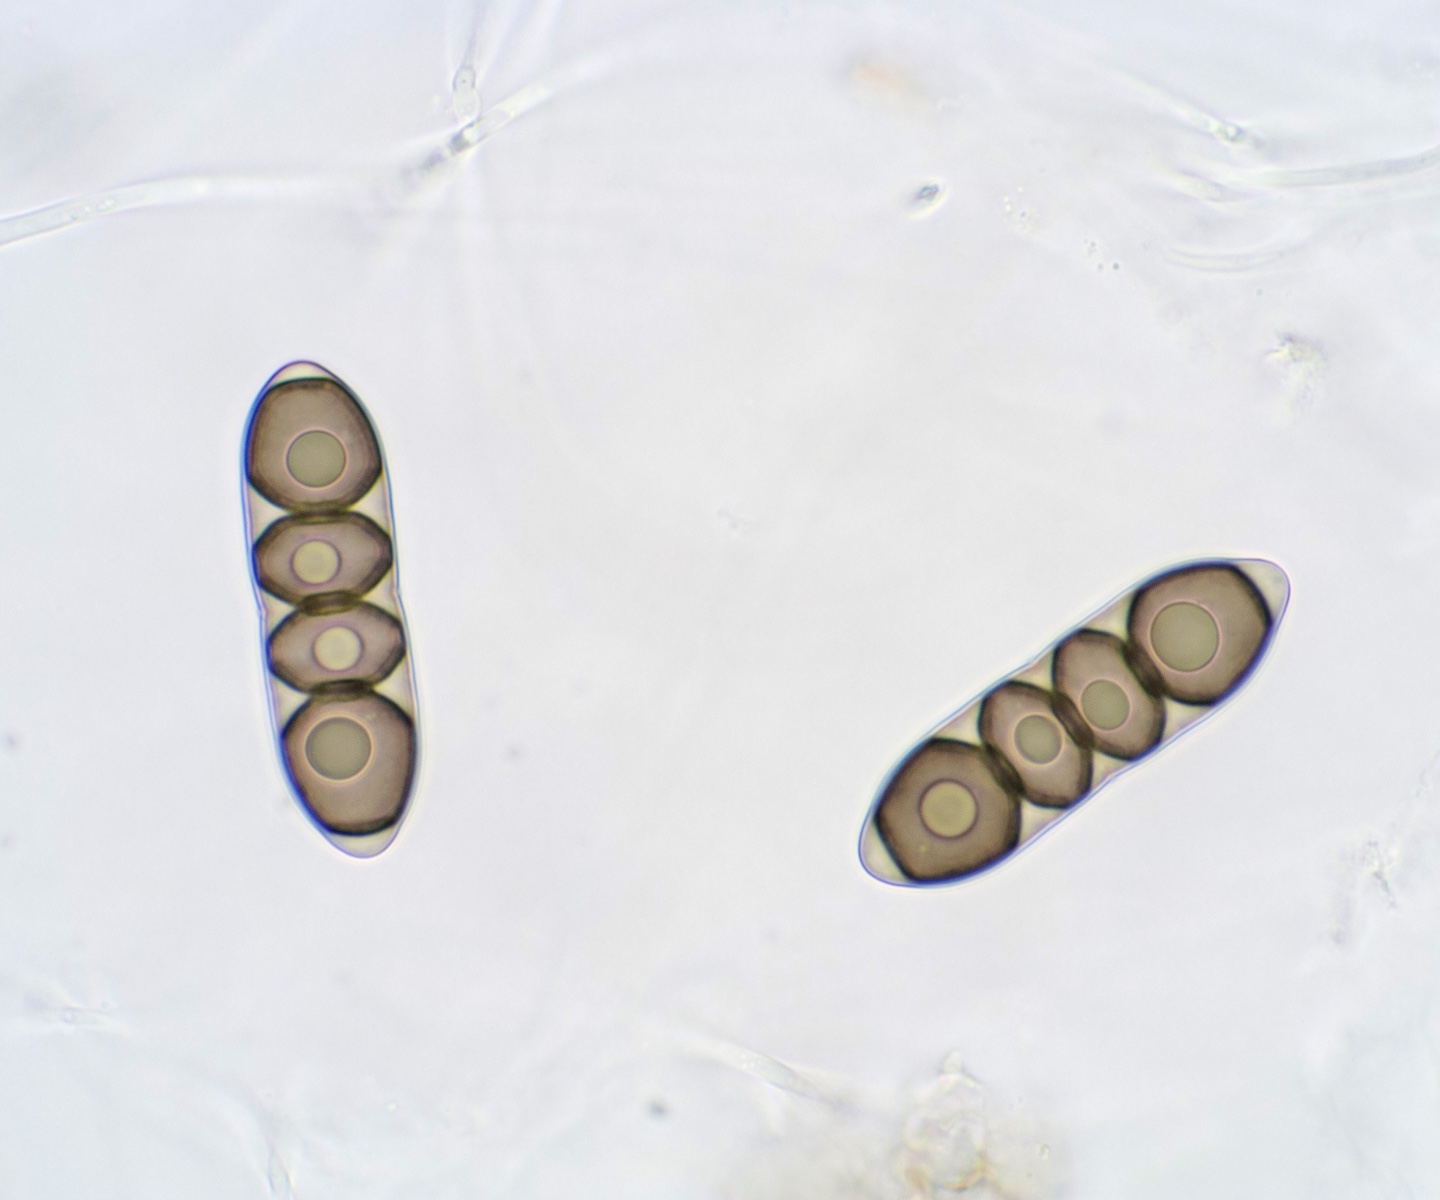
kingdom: Fungi
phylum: Ascomycota
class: Dothideomycetes
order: Pleosporales
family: Massariaceae
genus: Massaria
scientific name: Massaria anomia
